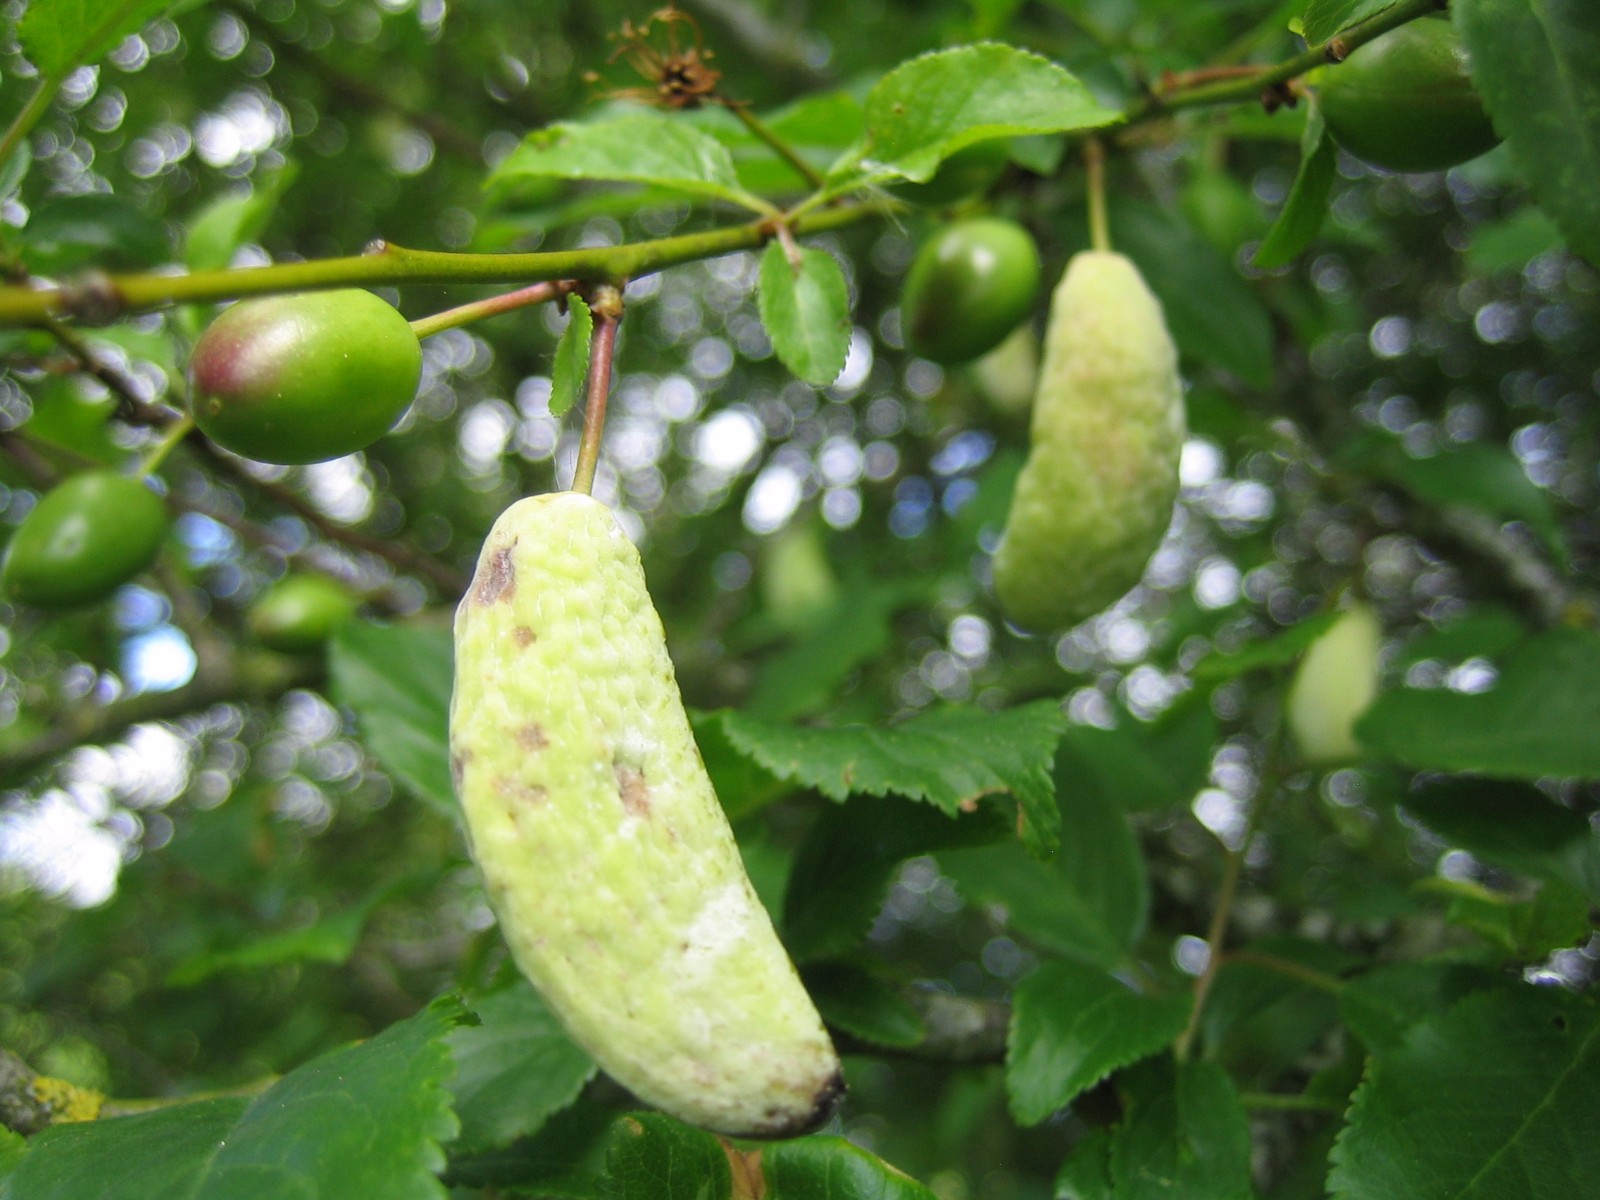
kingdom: Fungi
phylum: Ascomycota
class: Taphrinomycetes
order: Taphrinales
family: Taphrinaceae
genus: Taphrina
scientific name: Taphrina pruni
